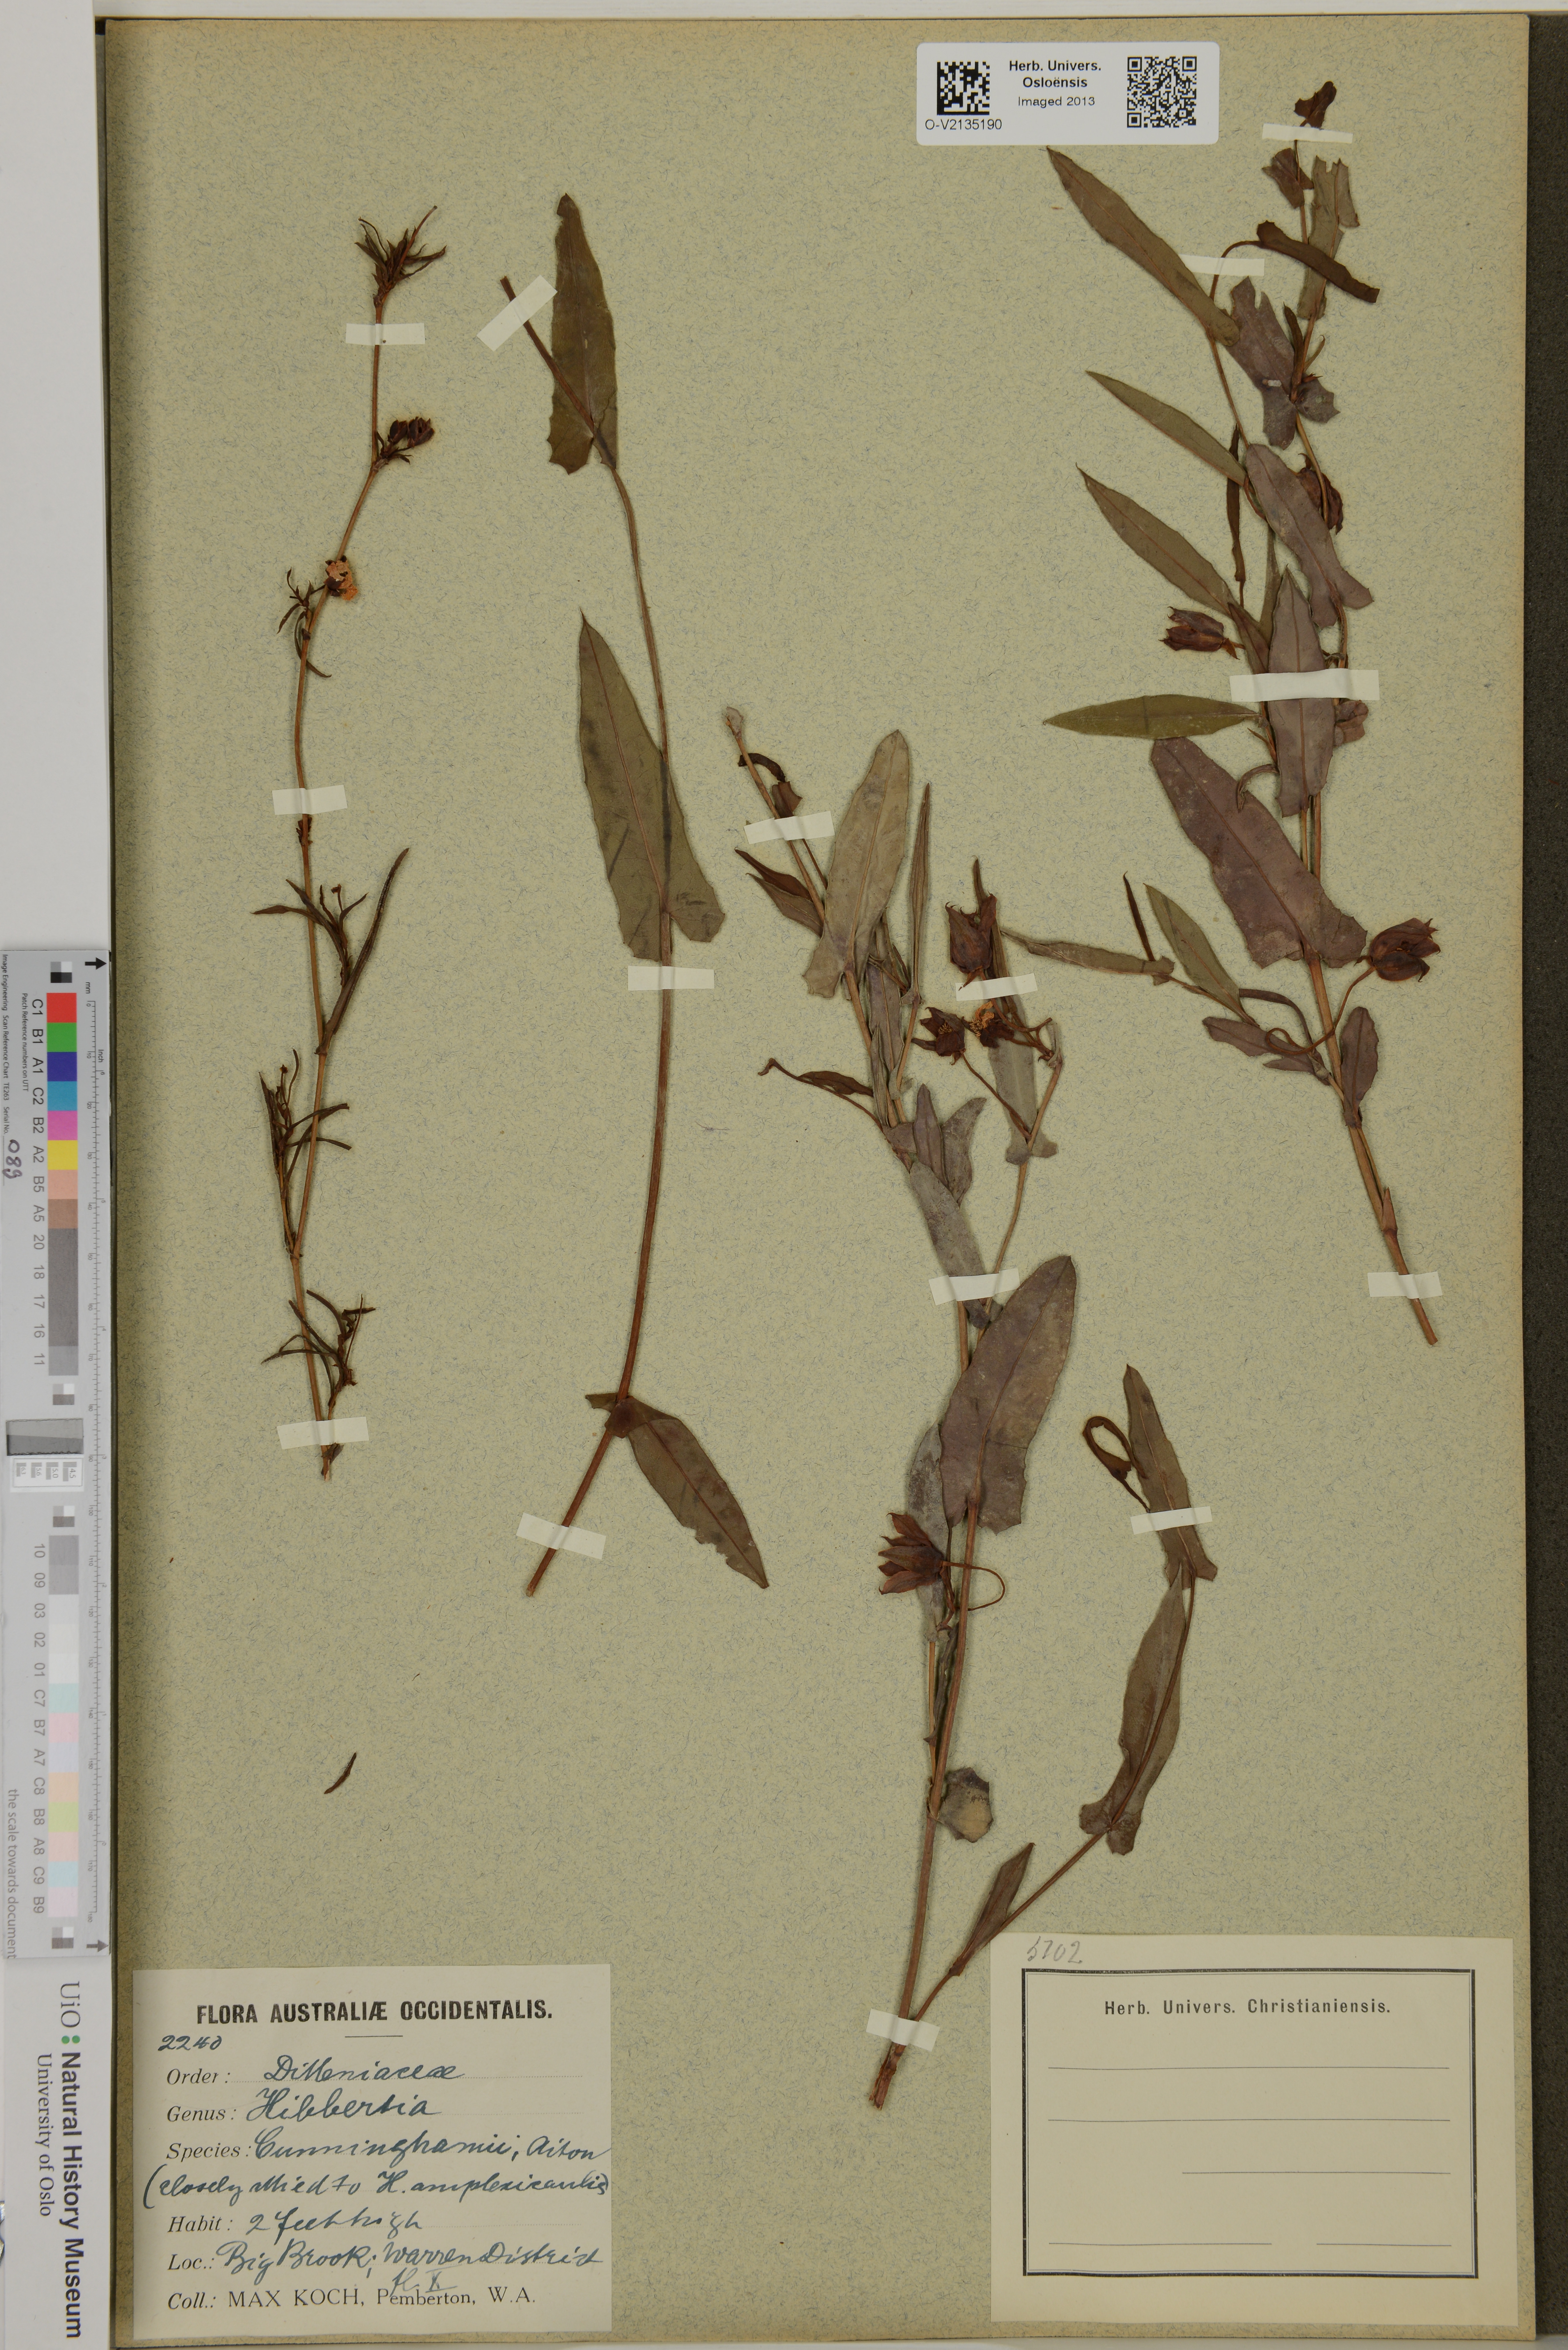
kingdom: Plantae
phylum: Tracheophyta
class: Magnoliopsida
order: Dilleniales
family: Dilleniaceae
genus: Hibbertia
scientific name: Hibbertia cunninghamii
